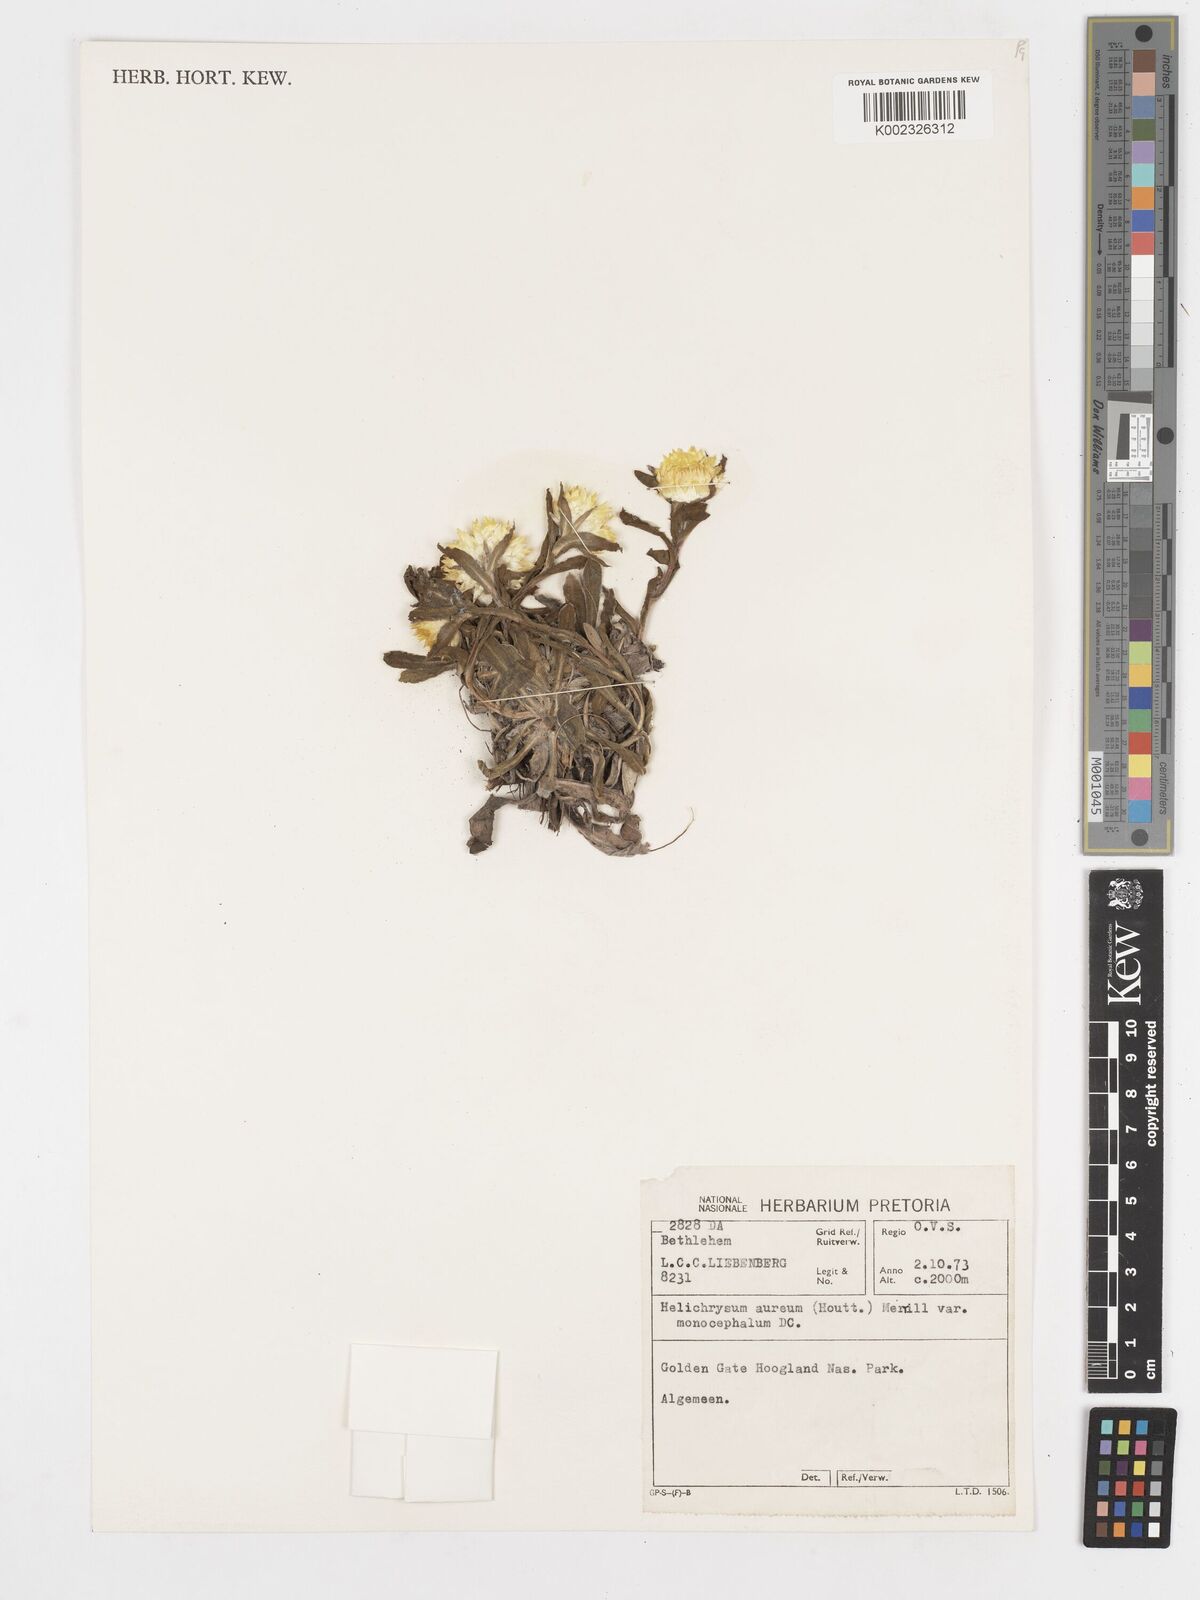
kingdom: Plantae
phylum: Tracheophyta
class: Magnoliopsida
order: Asterales
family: Asteraceae
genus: Helichrysum
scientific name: Helichrysum aureum
